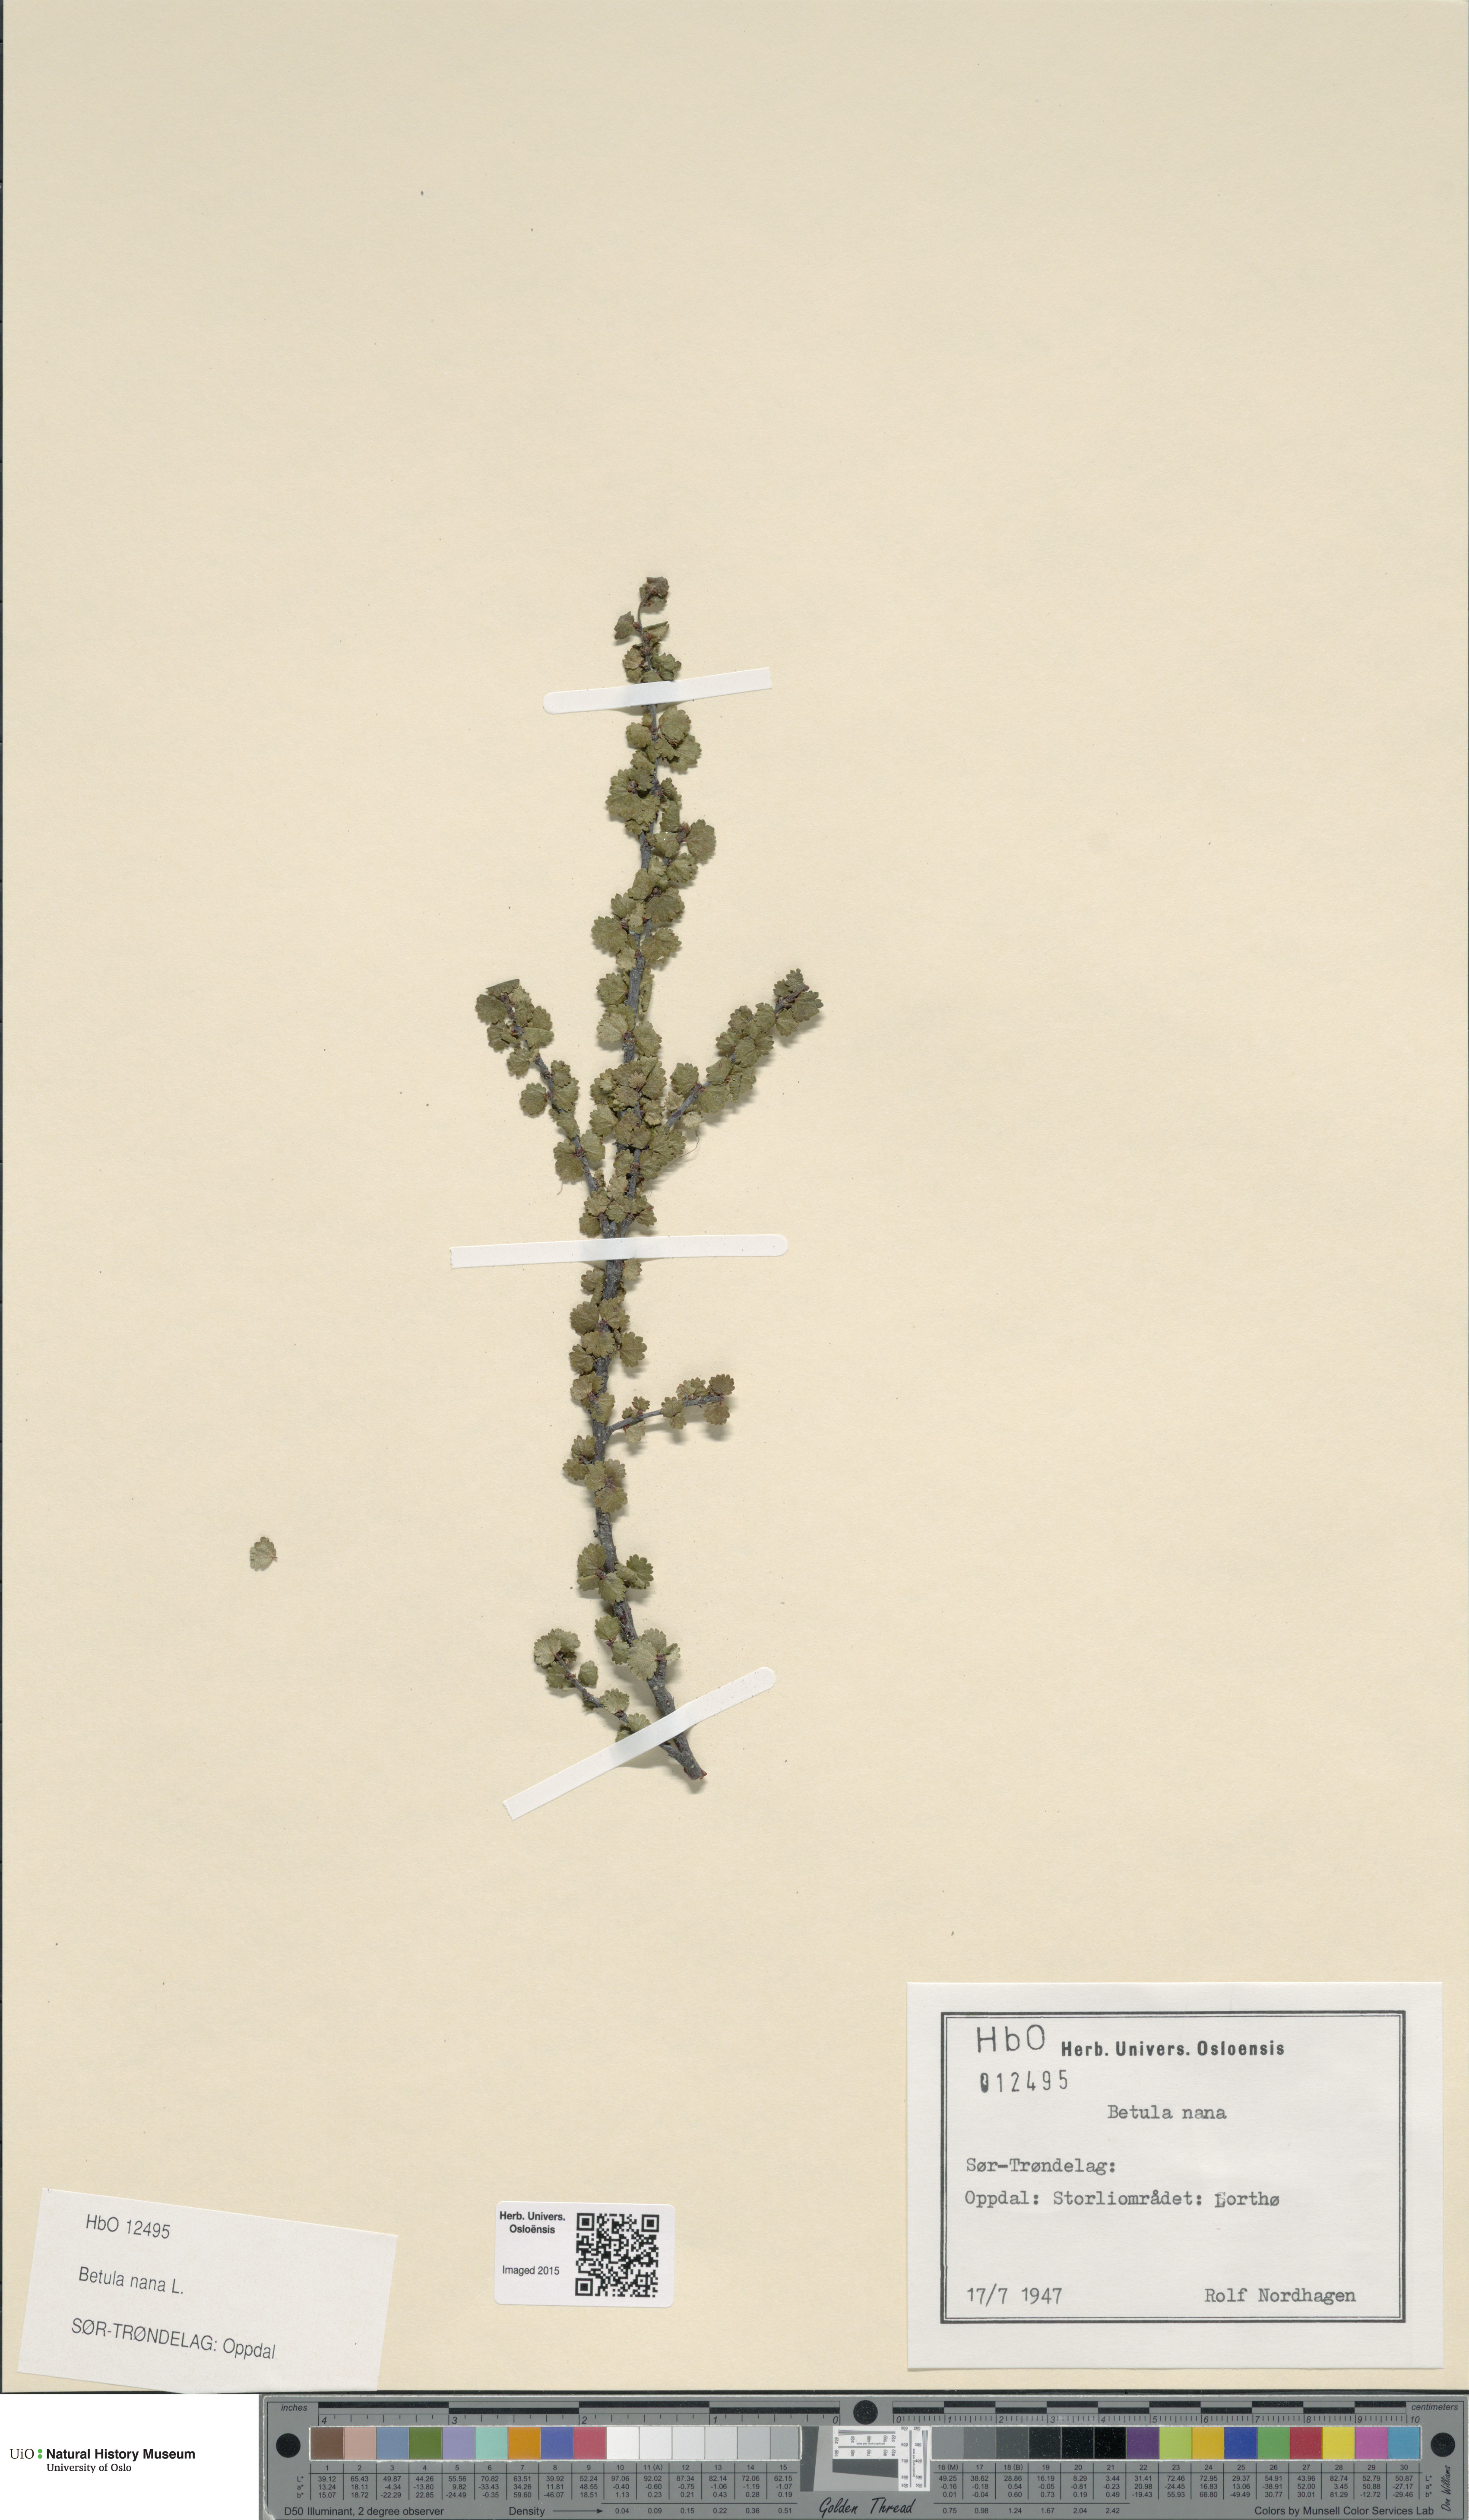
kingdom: Plantae
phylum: Tracheophyta
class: Magnoliopsida
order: Fagales
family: Betulaceae
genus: Betula
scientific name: Betula nana
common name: Arctic dwarf birch
